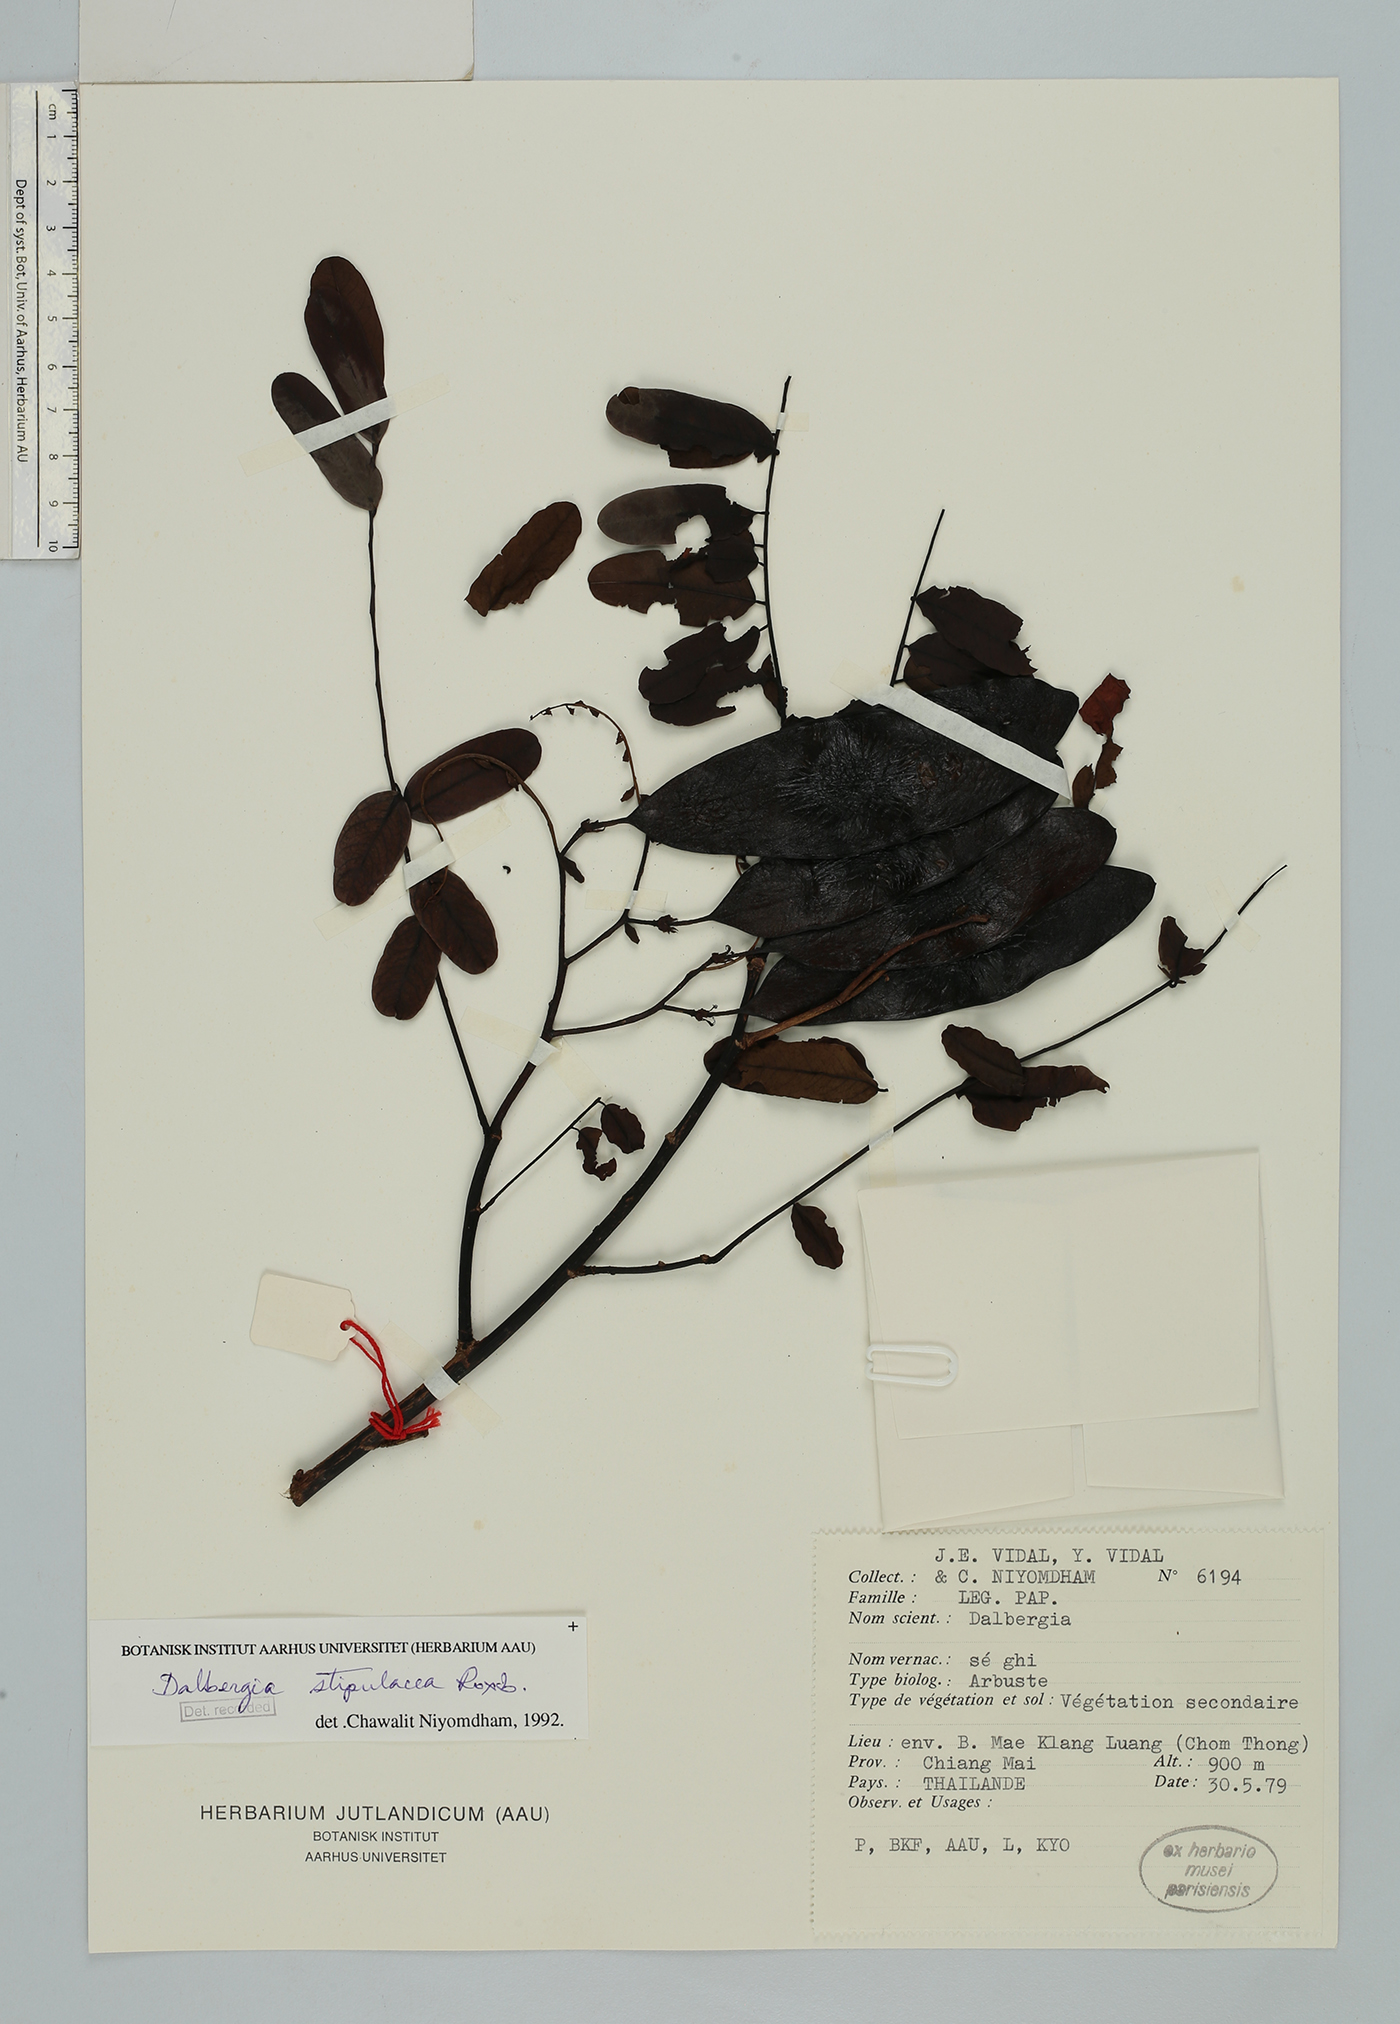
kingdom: Plantae
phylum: Tracheophyta
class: Magnoliopsida
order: Fabales
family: Fabaceae
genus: Dalbergia
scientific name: Dalbergia stipulacea
